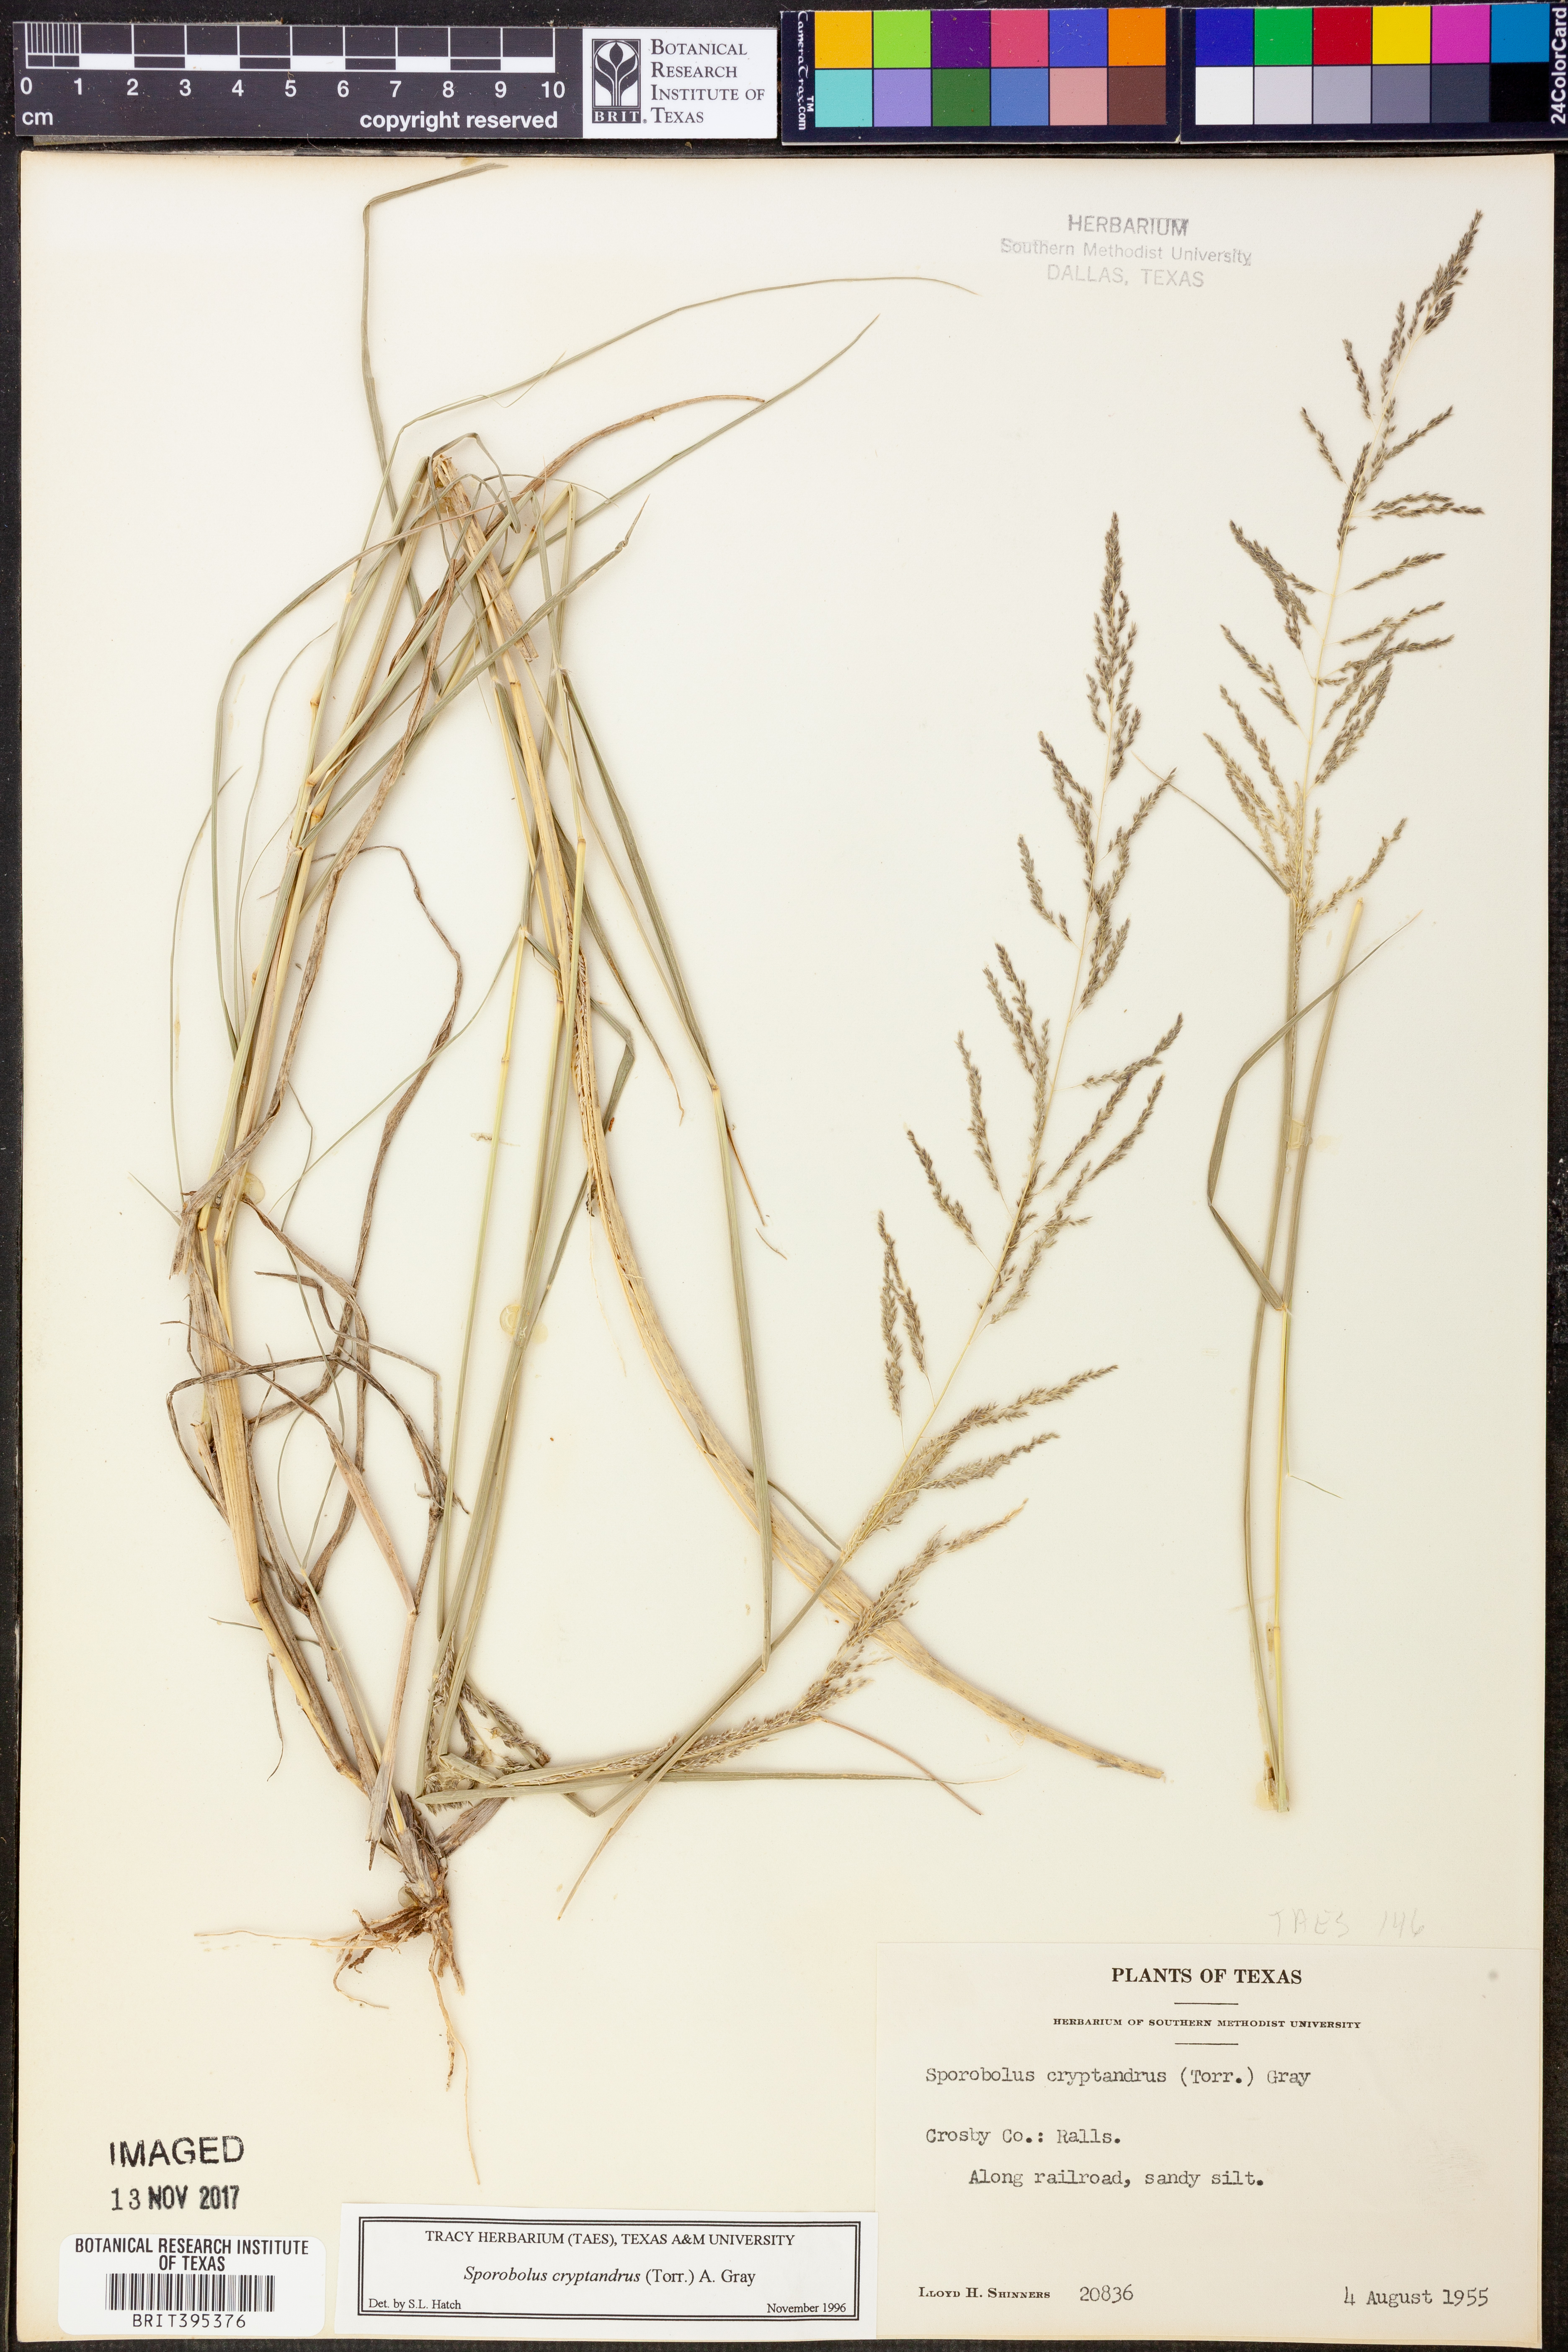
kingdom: Plantae
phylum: Tracheophyta
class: Liliopsida
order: Poales
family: Poaceae
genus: Sporobolus
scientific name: Sporobolus cryptandrus
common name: Sand dropseed
